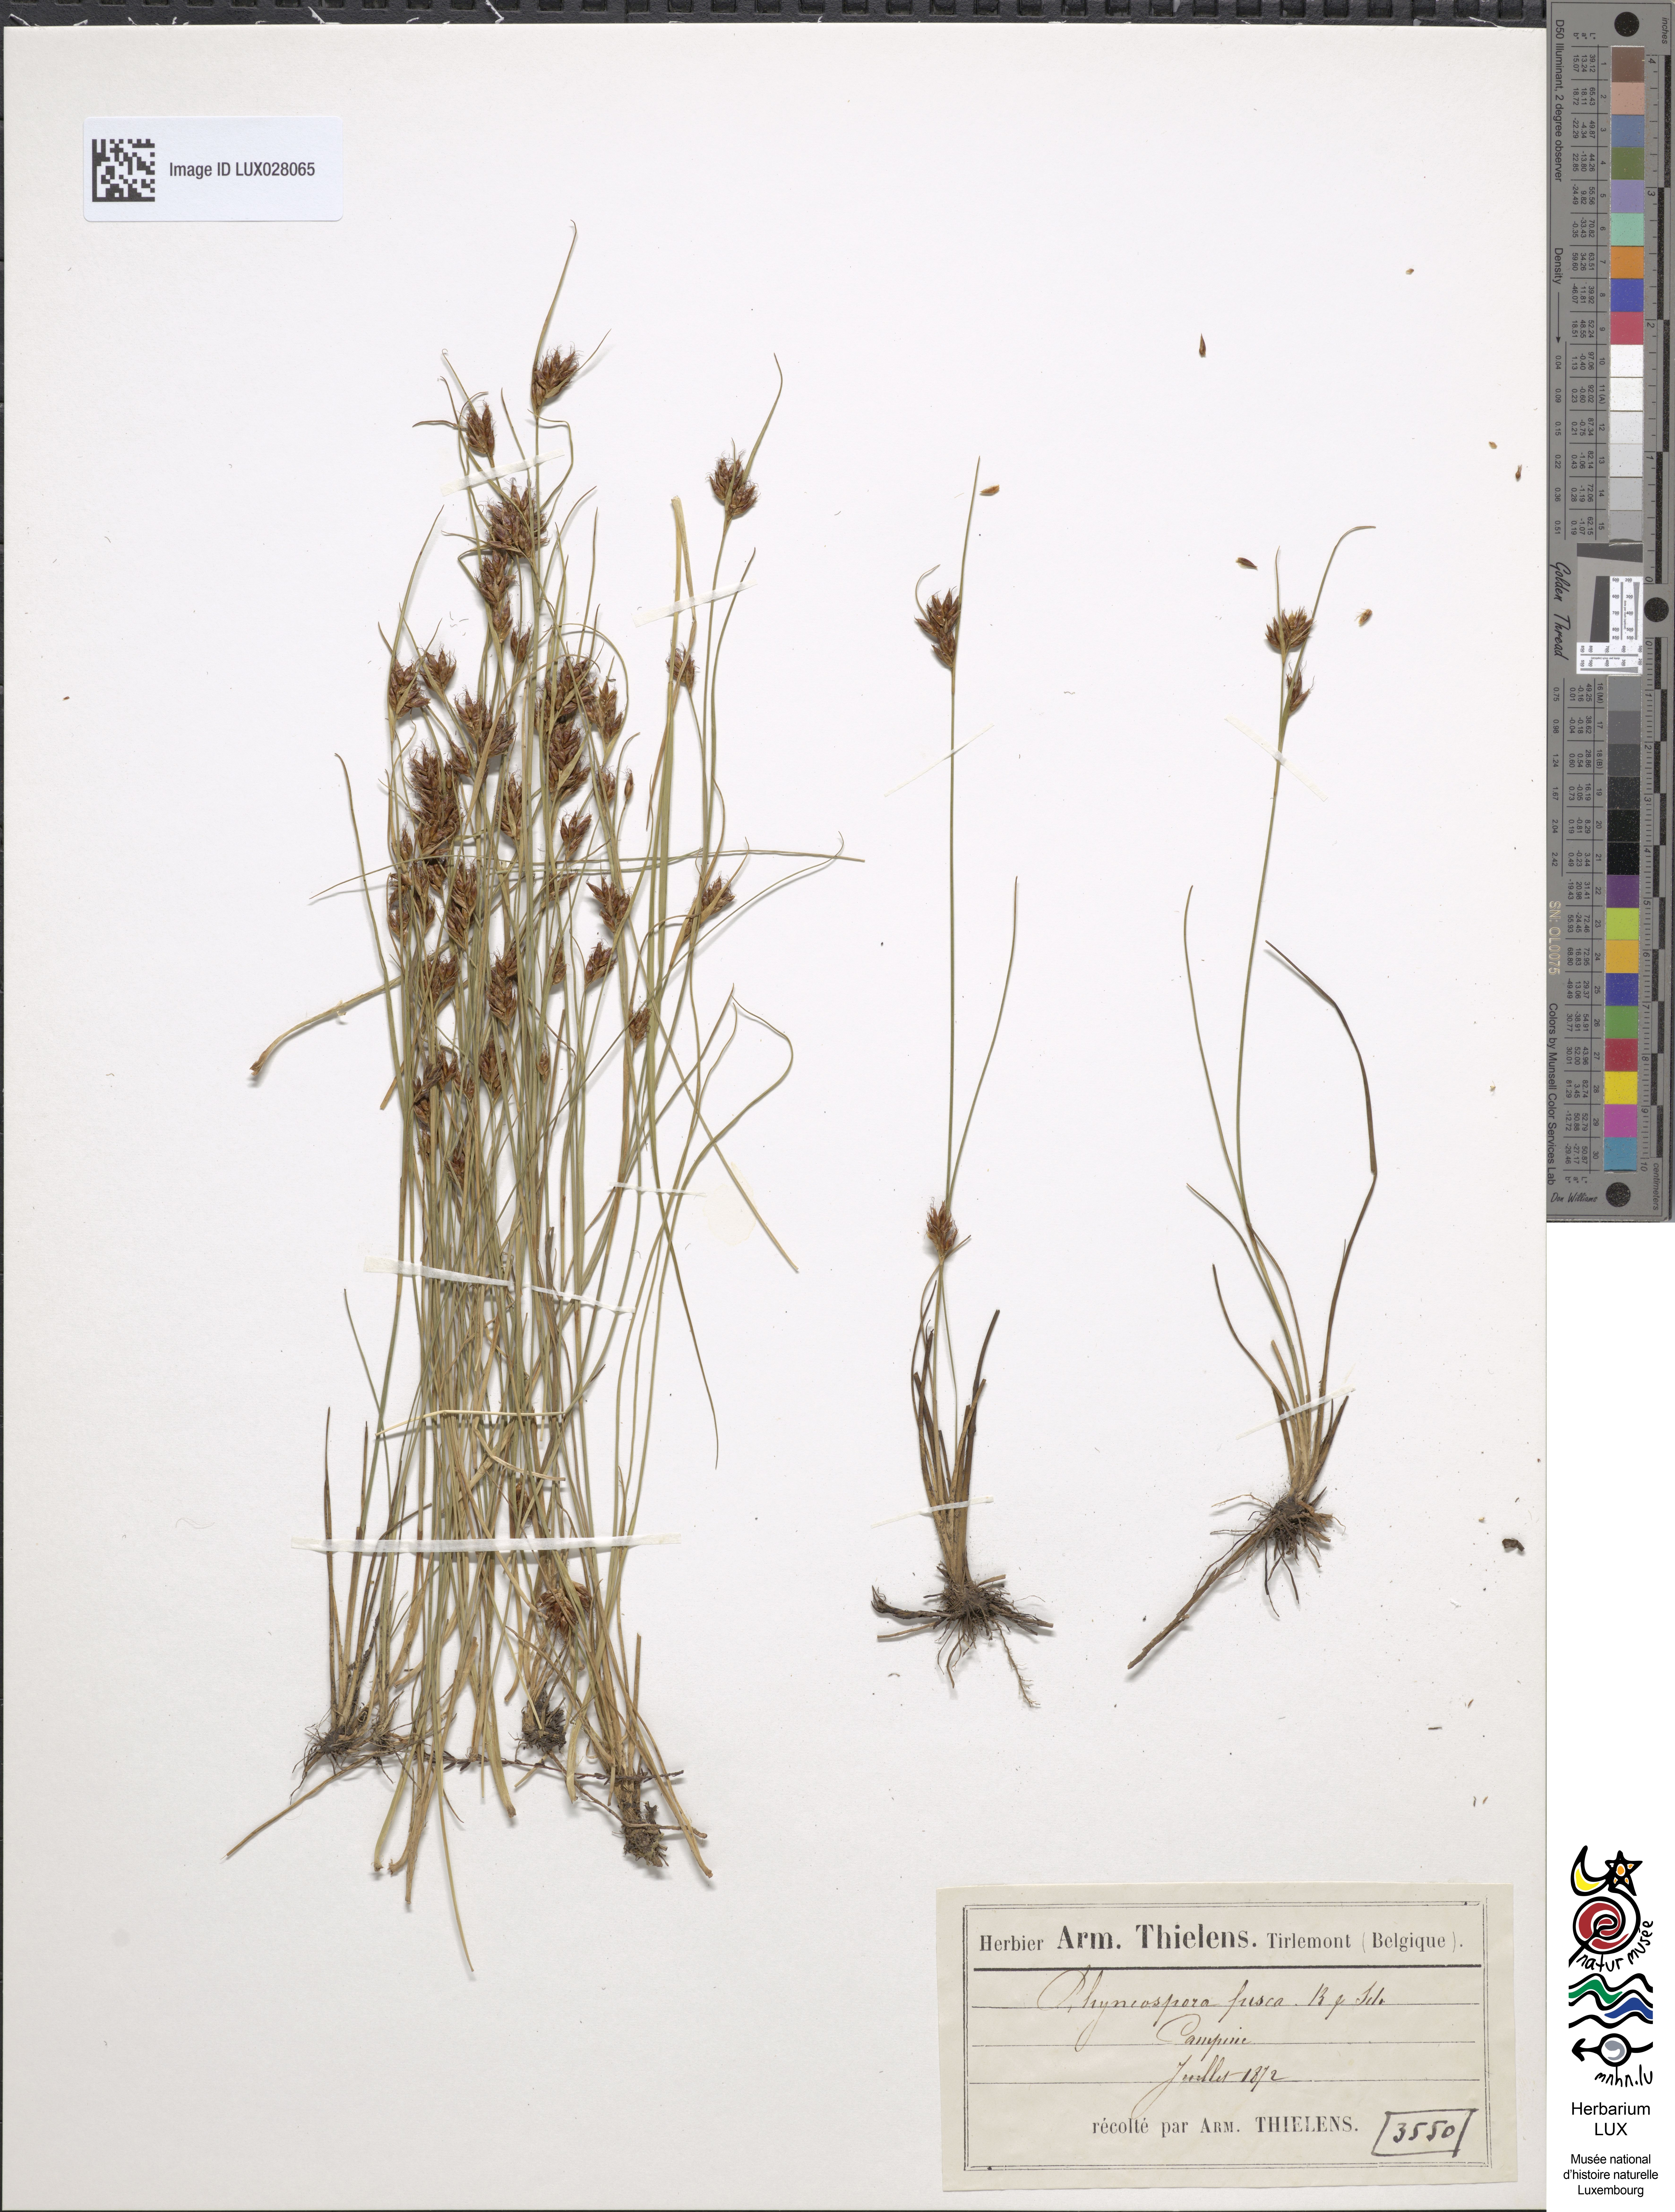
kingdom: Plantae
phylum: Tracheophyta
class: Liliopsida
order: Poales
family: Cyperaceae
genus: Rhynchospora
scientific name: Rhynchospora fusca
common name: Brown beak-sedge
